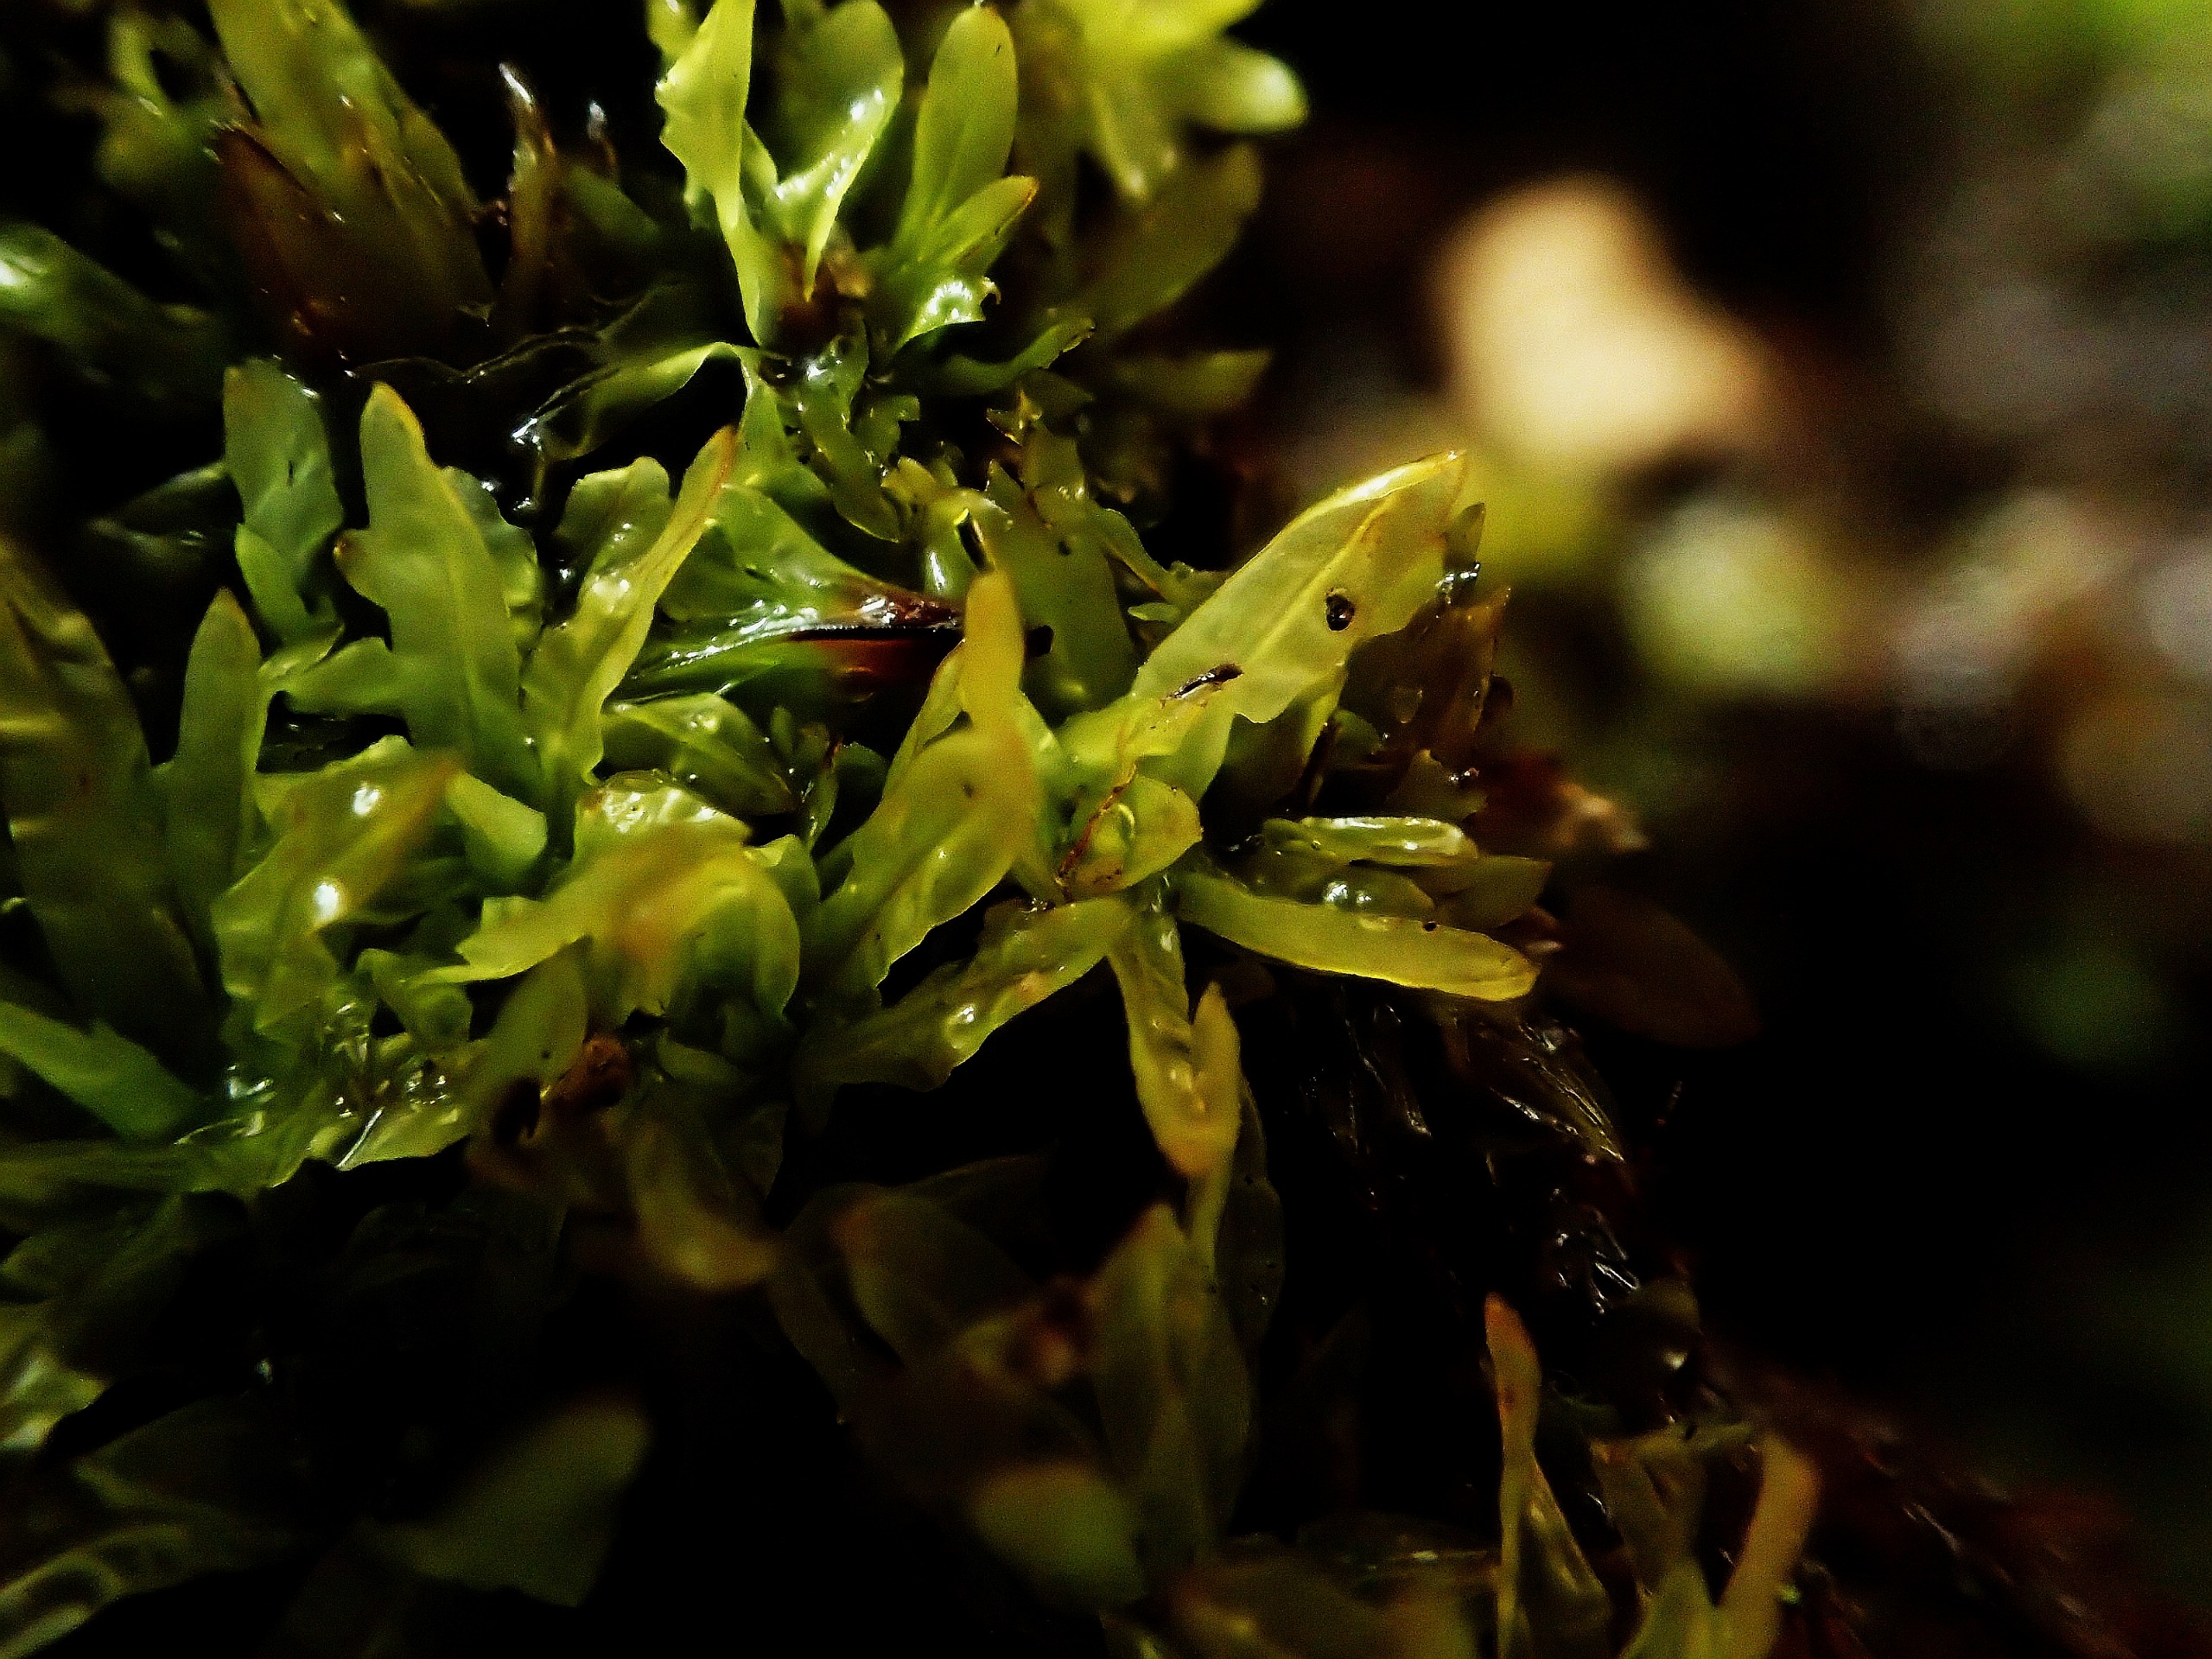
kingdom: Plantae
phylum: Bryophyta
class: Bryopsida
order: Encalyptales
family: Encalyptaceae
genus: Encalypta
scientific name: Encalypta streptocarpa
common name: Stor klokkehætte
